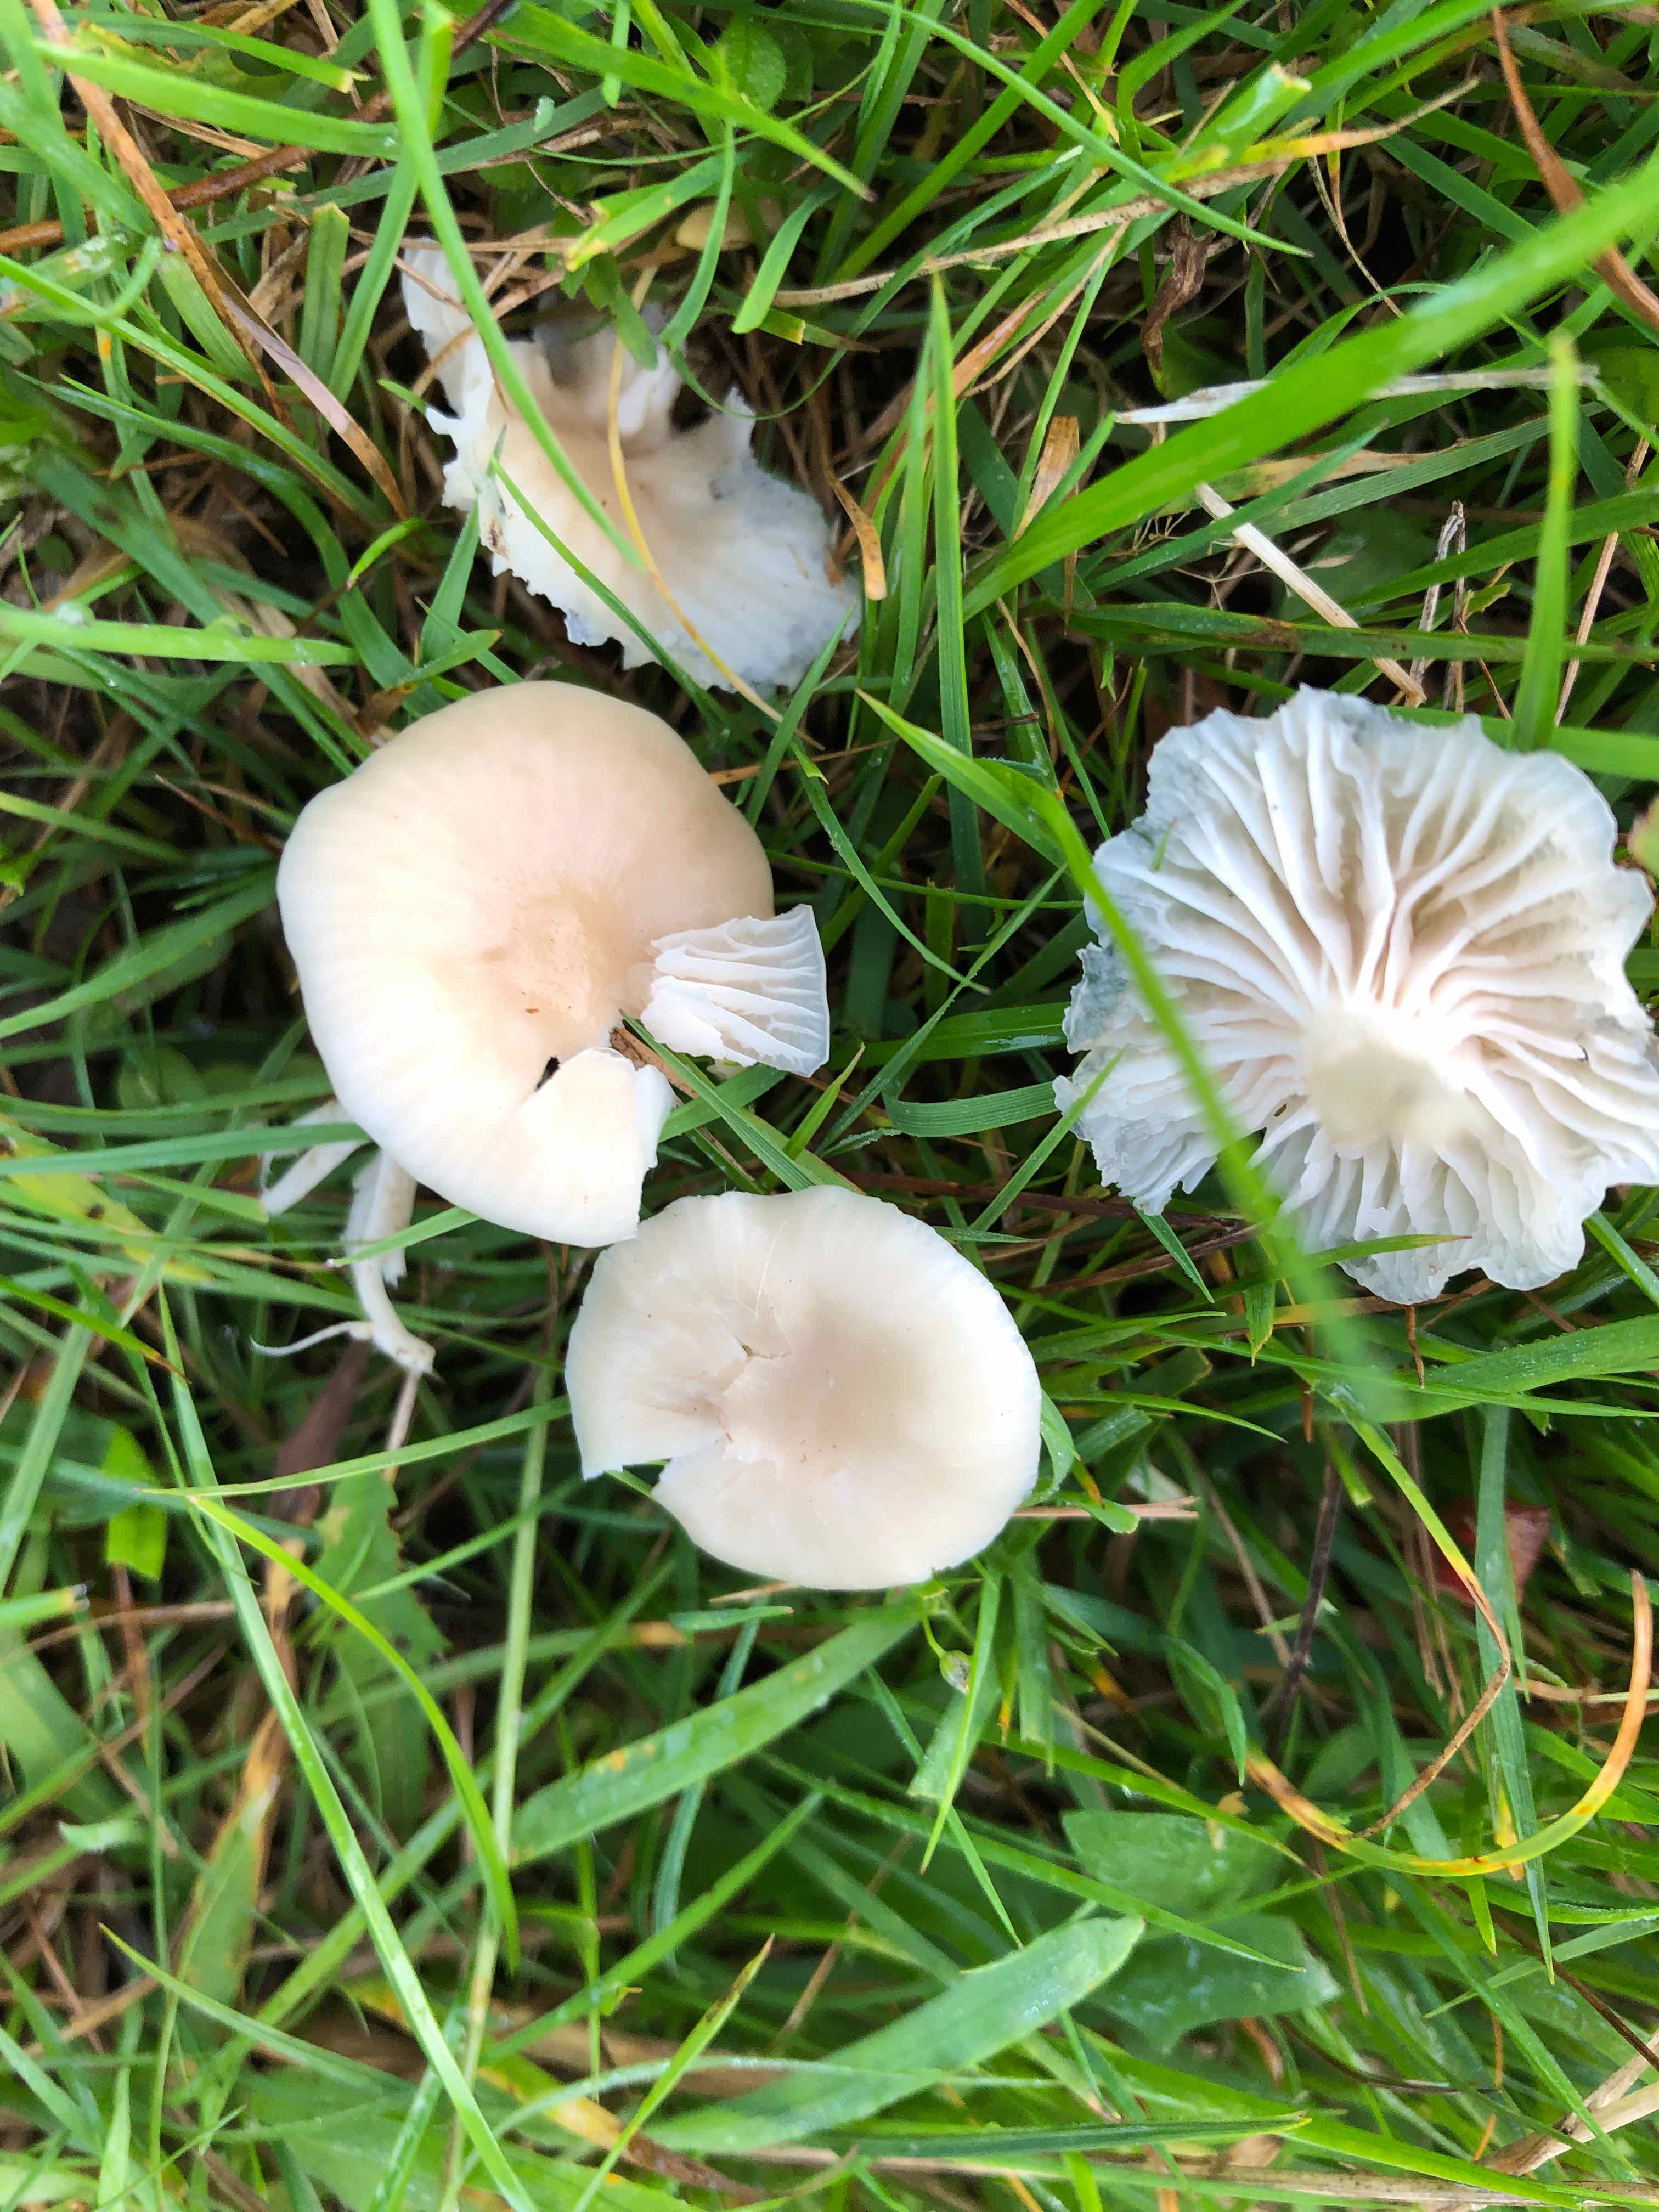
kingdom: Fungi
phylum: Basidiomycota
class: Agaricomycetes
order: Agaricales
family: Hygrophoraceae
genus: Cuphophyllus
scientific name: Cuphophyllus russocoriaceus
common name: ruslæder-vokshat
